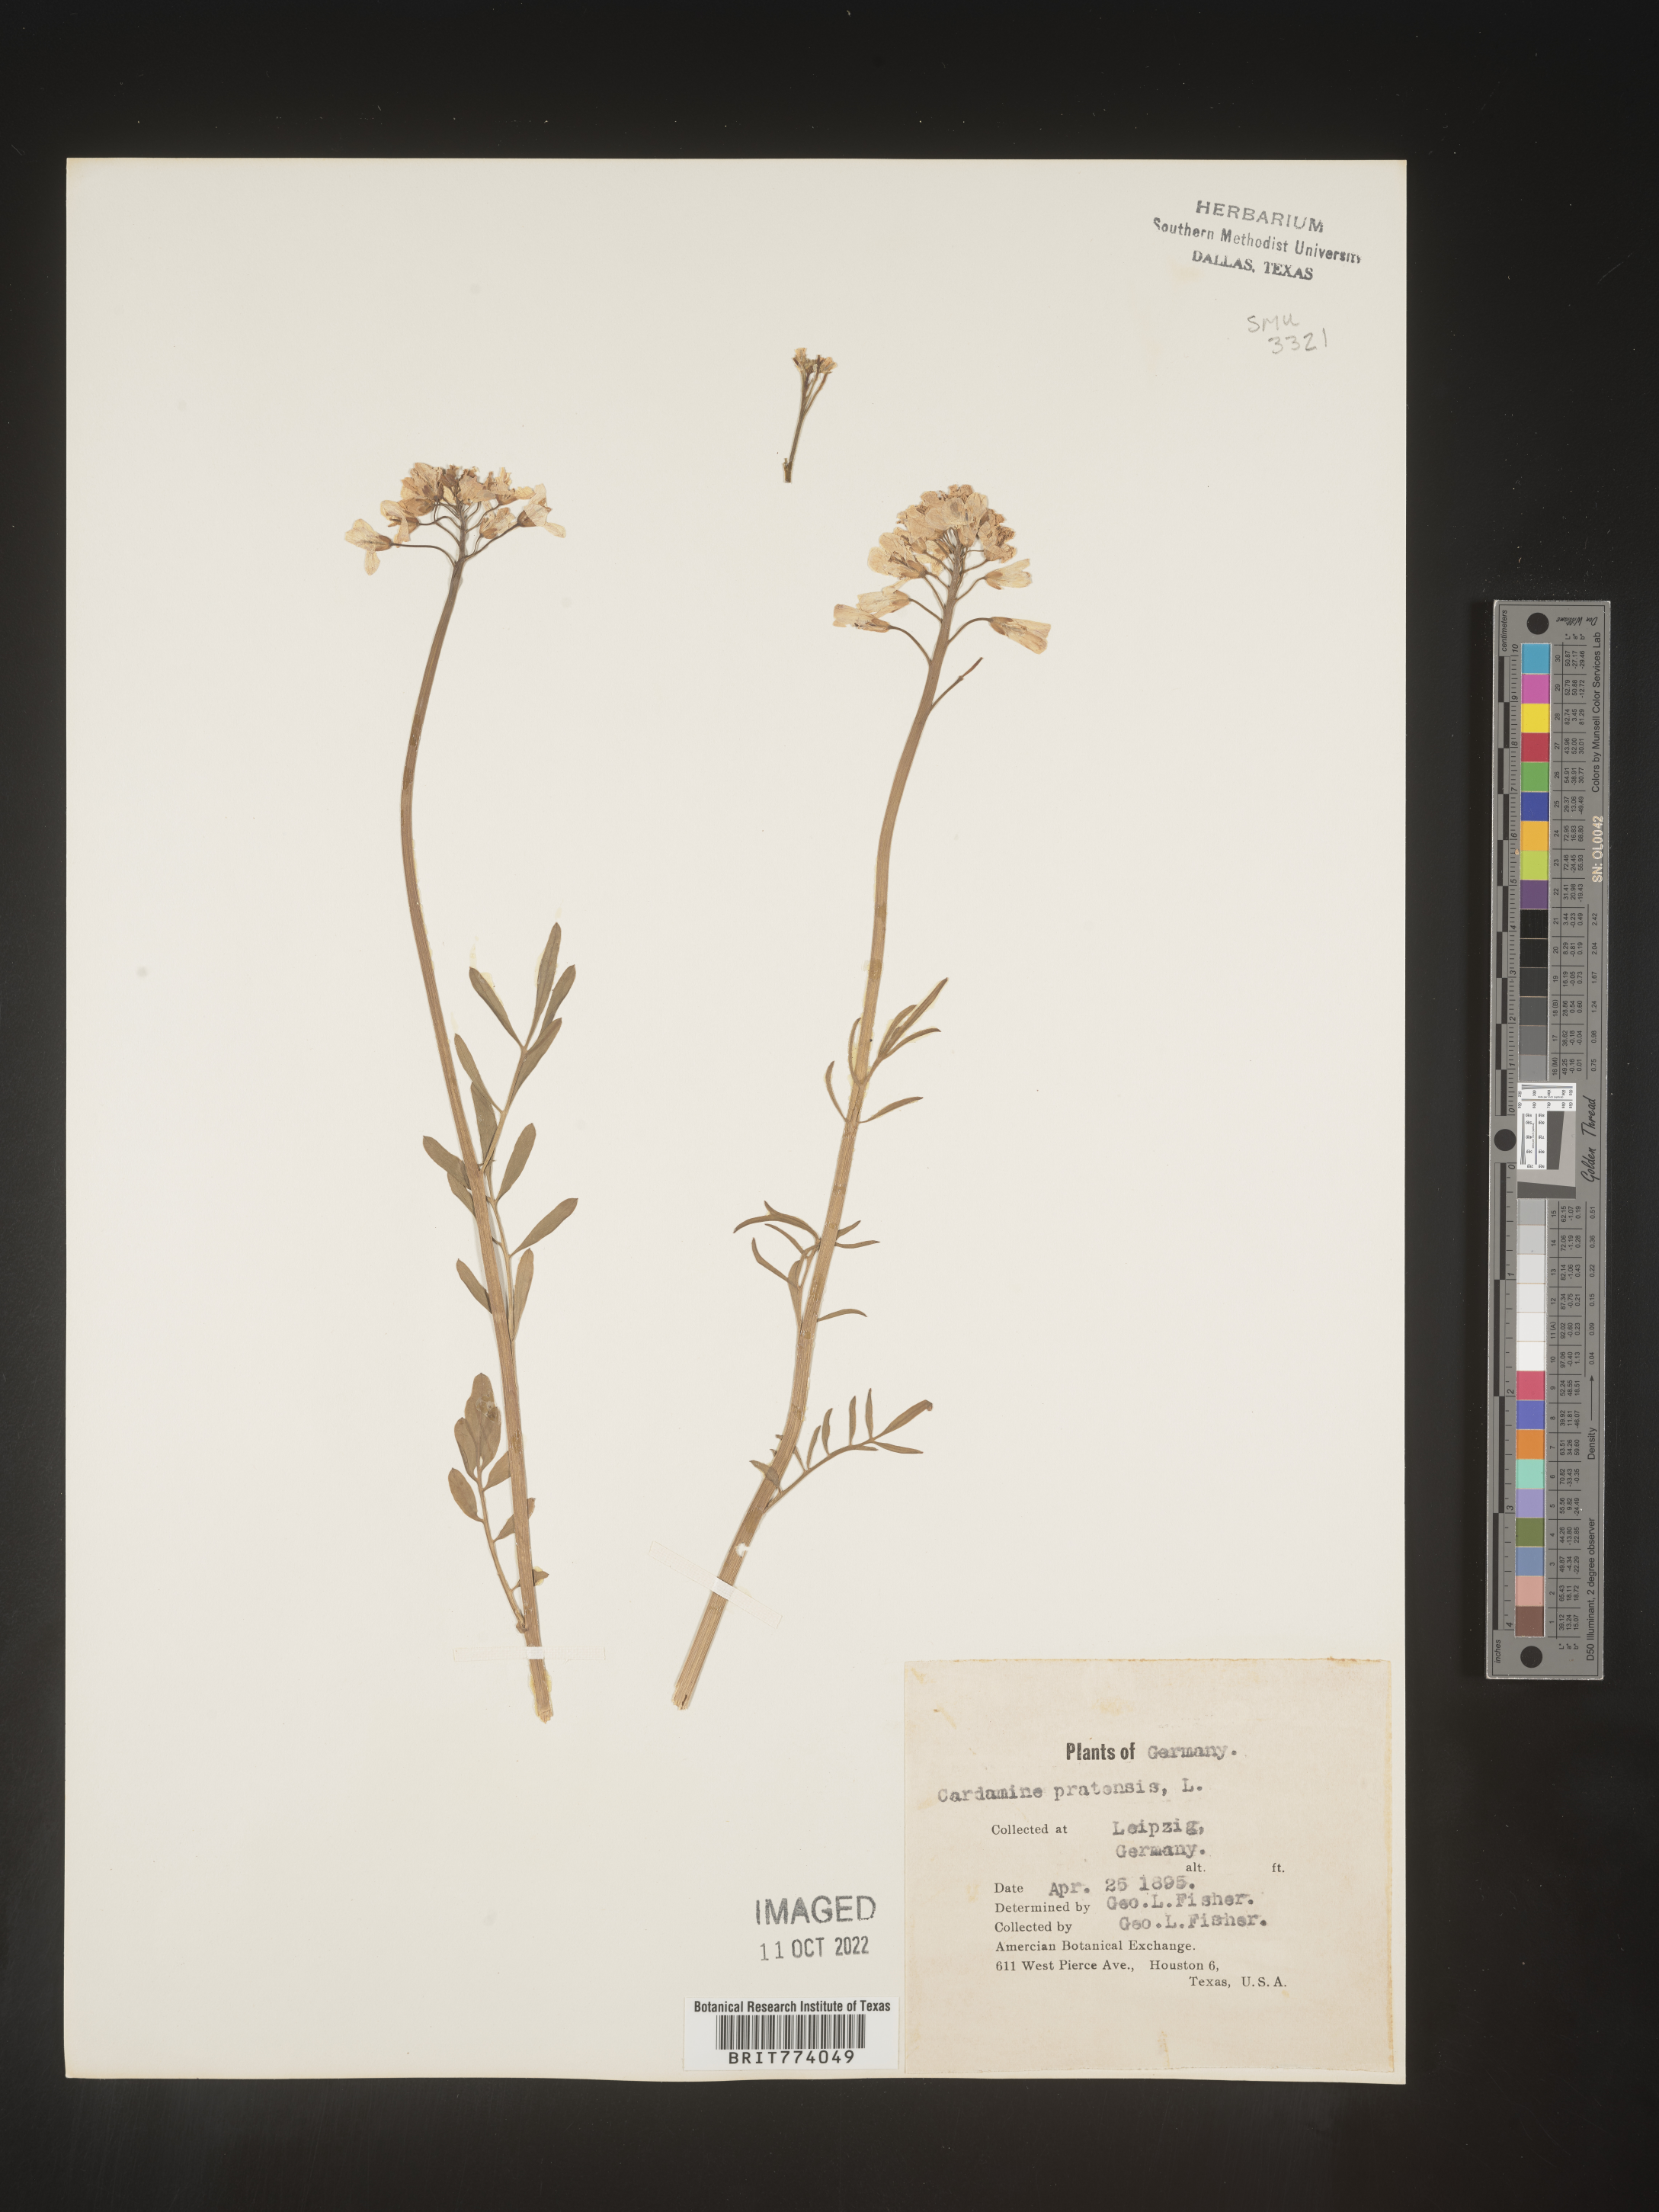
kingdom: Plantae
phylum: Tracheophyta
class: Magnoliopsida
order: Brassicales
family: Brassicaceae
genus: Cardamine
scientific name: Cardamine pratensis
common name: Cuckoo flower
